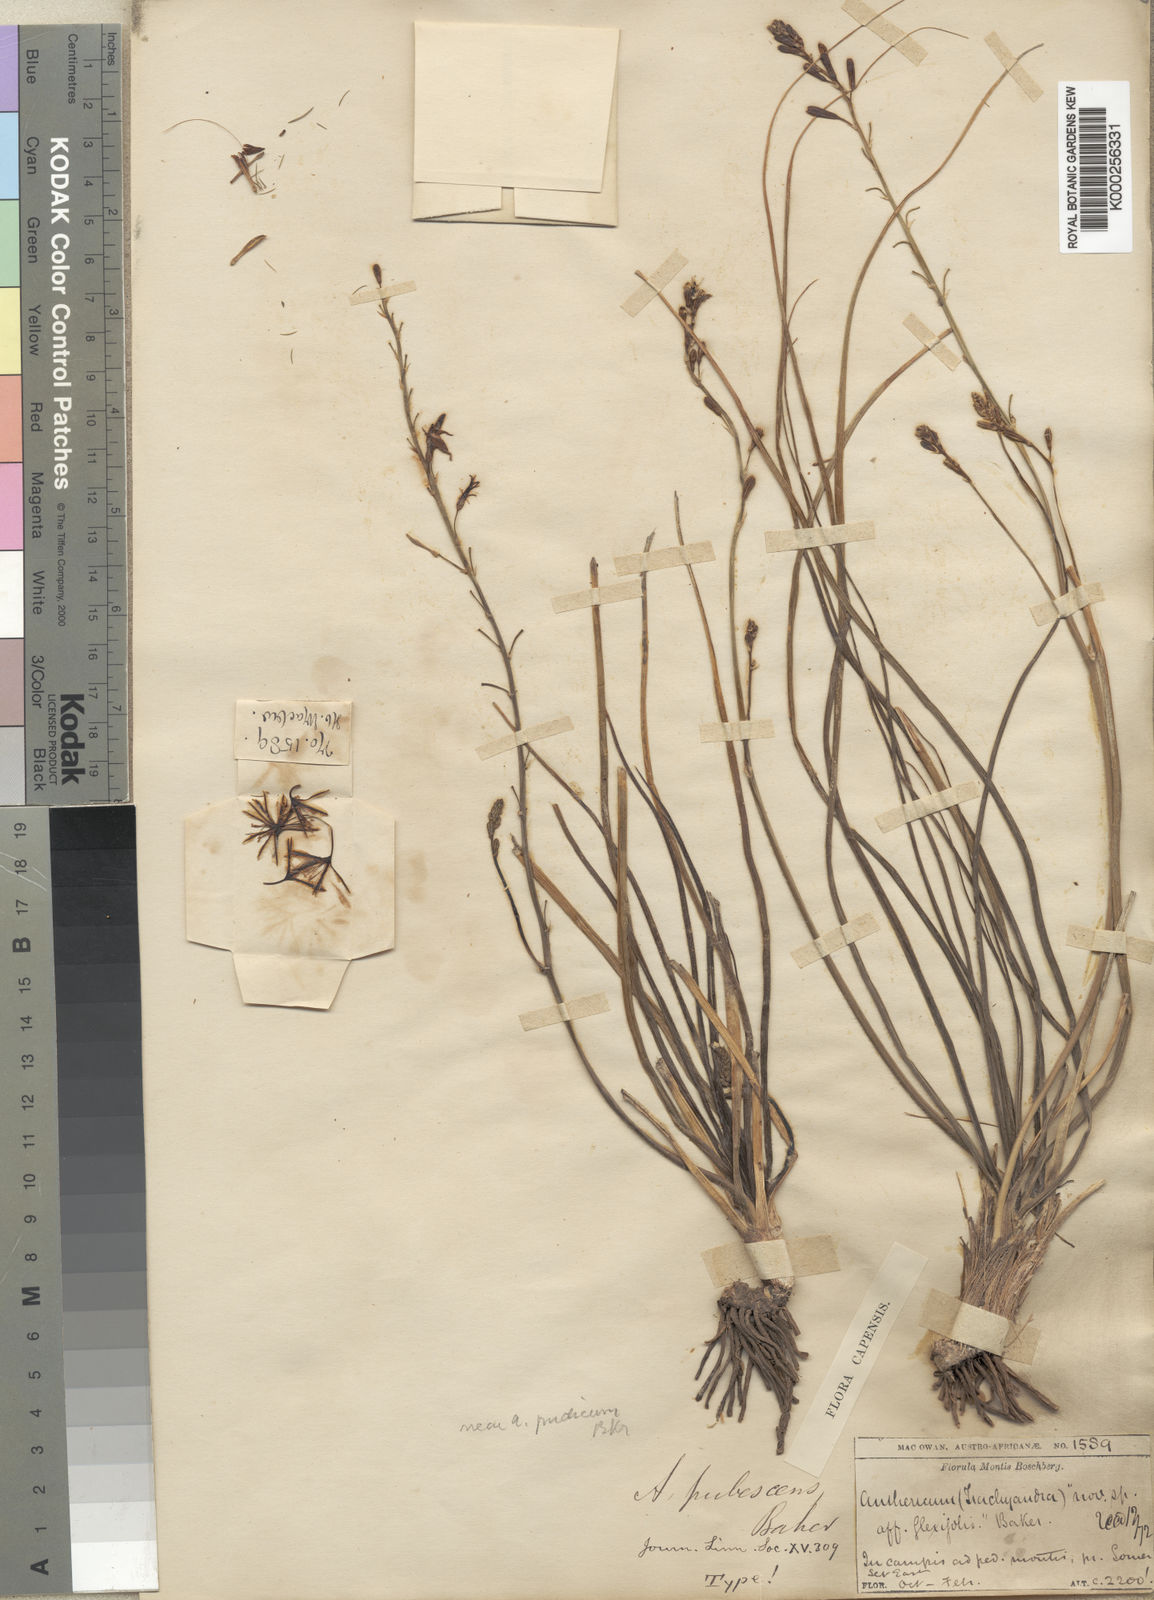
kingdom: Plantae
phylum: Tracheophyta
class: Liliopsida
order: Asparagales
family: Asphodelaceae
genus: Trachyandra
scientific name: Trachyandra affinis
